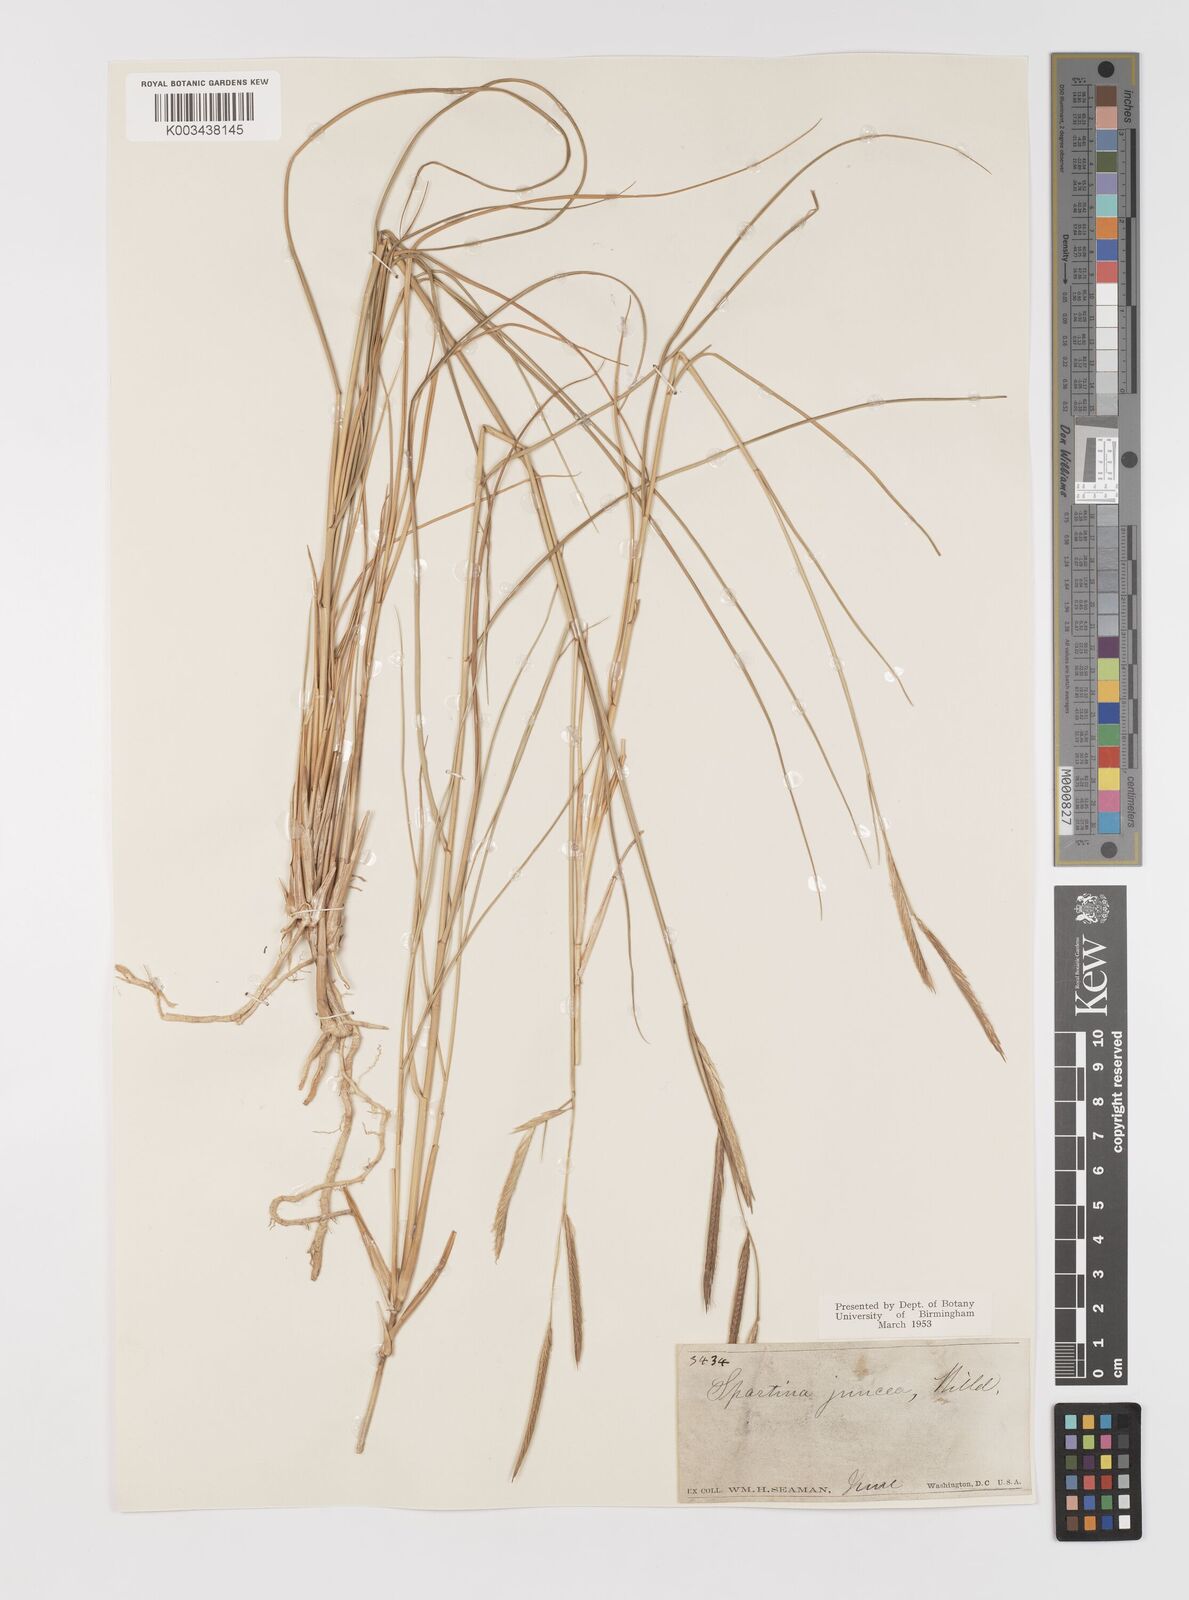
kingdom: Plantae
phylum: Tracheophyta
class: Liliopsida
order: Poales
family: Poaceae
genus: Sporobolus
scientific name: Sporobolus pumilus
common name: Highwater grass
